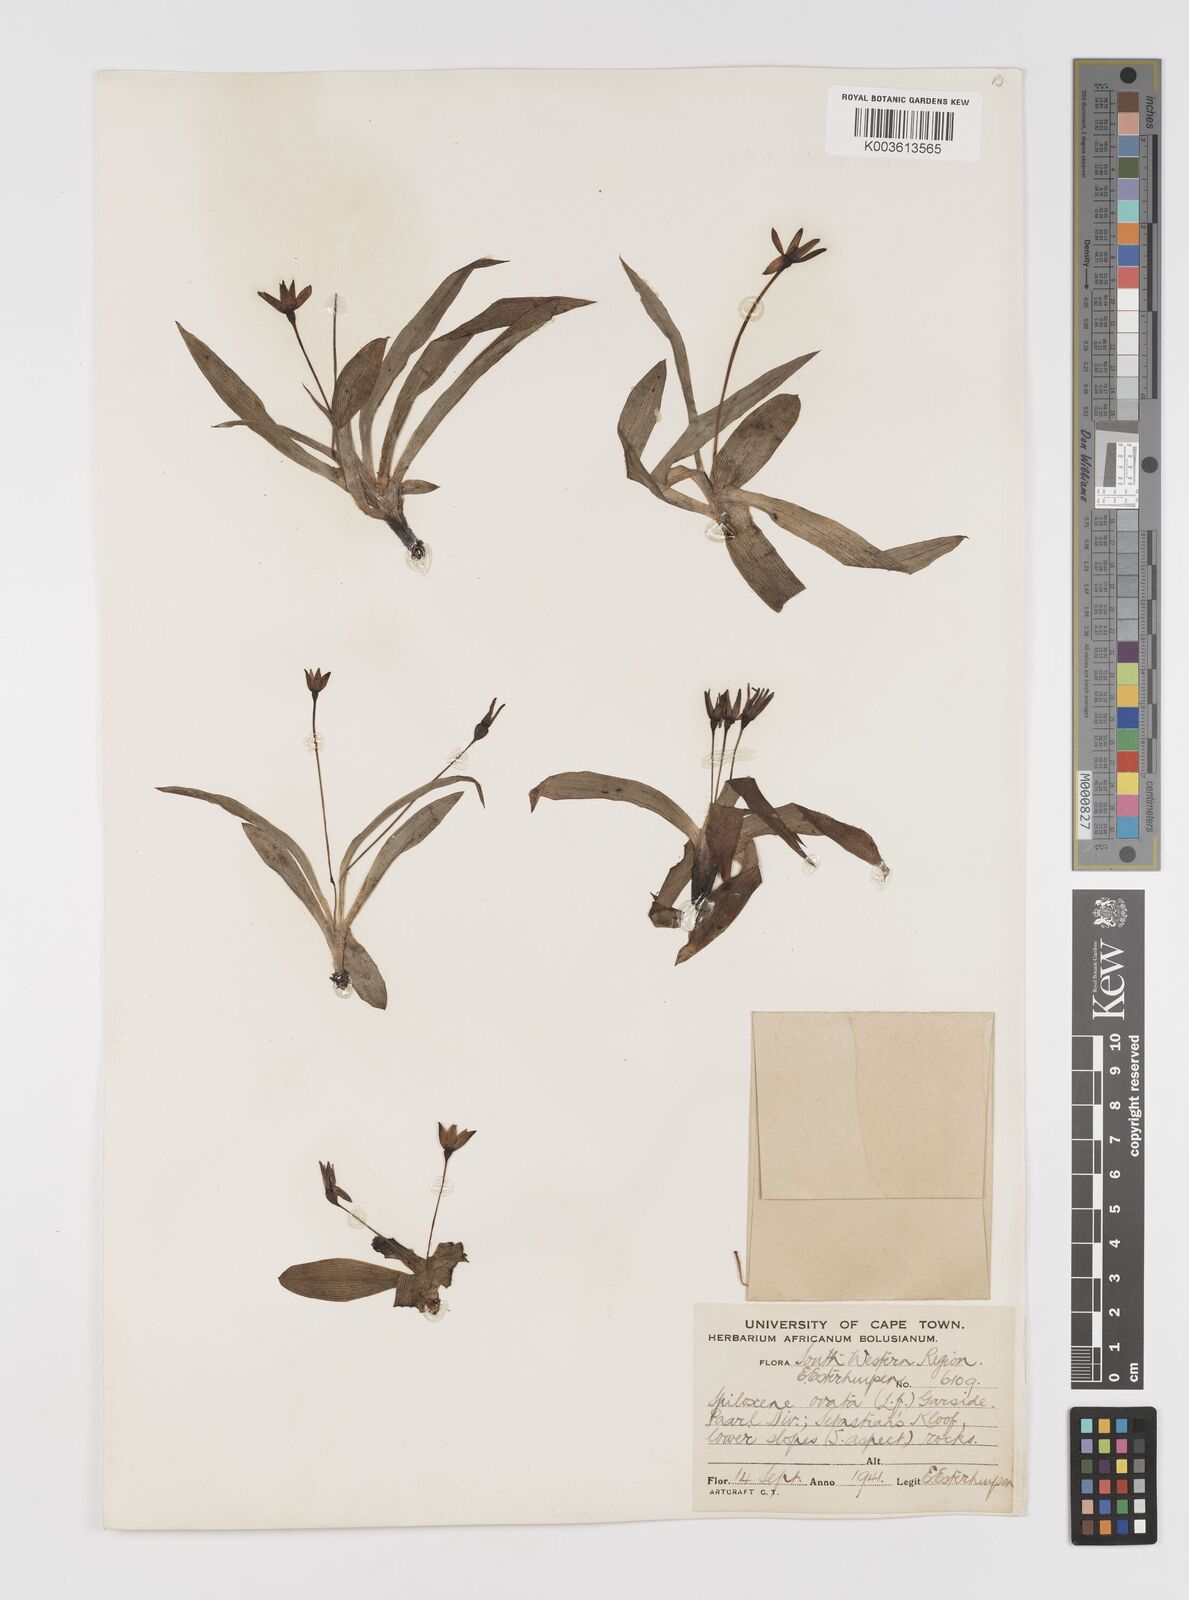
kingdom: Plantae
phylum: Tracheophyta
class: Liliopsida
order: Asparagales
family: Hypoxidaceae
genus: Pauridia
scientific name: Pauridia ovata
